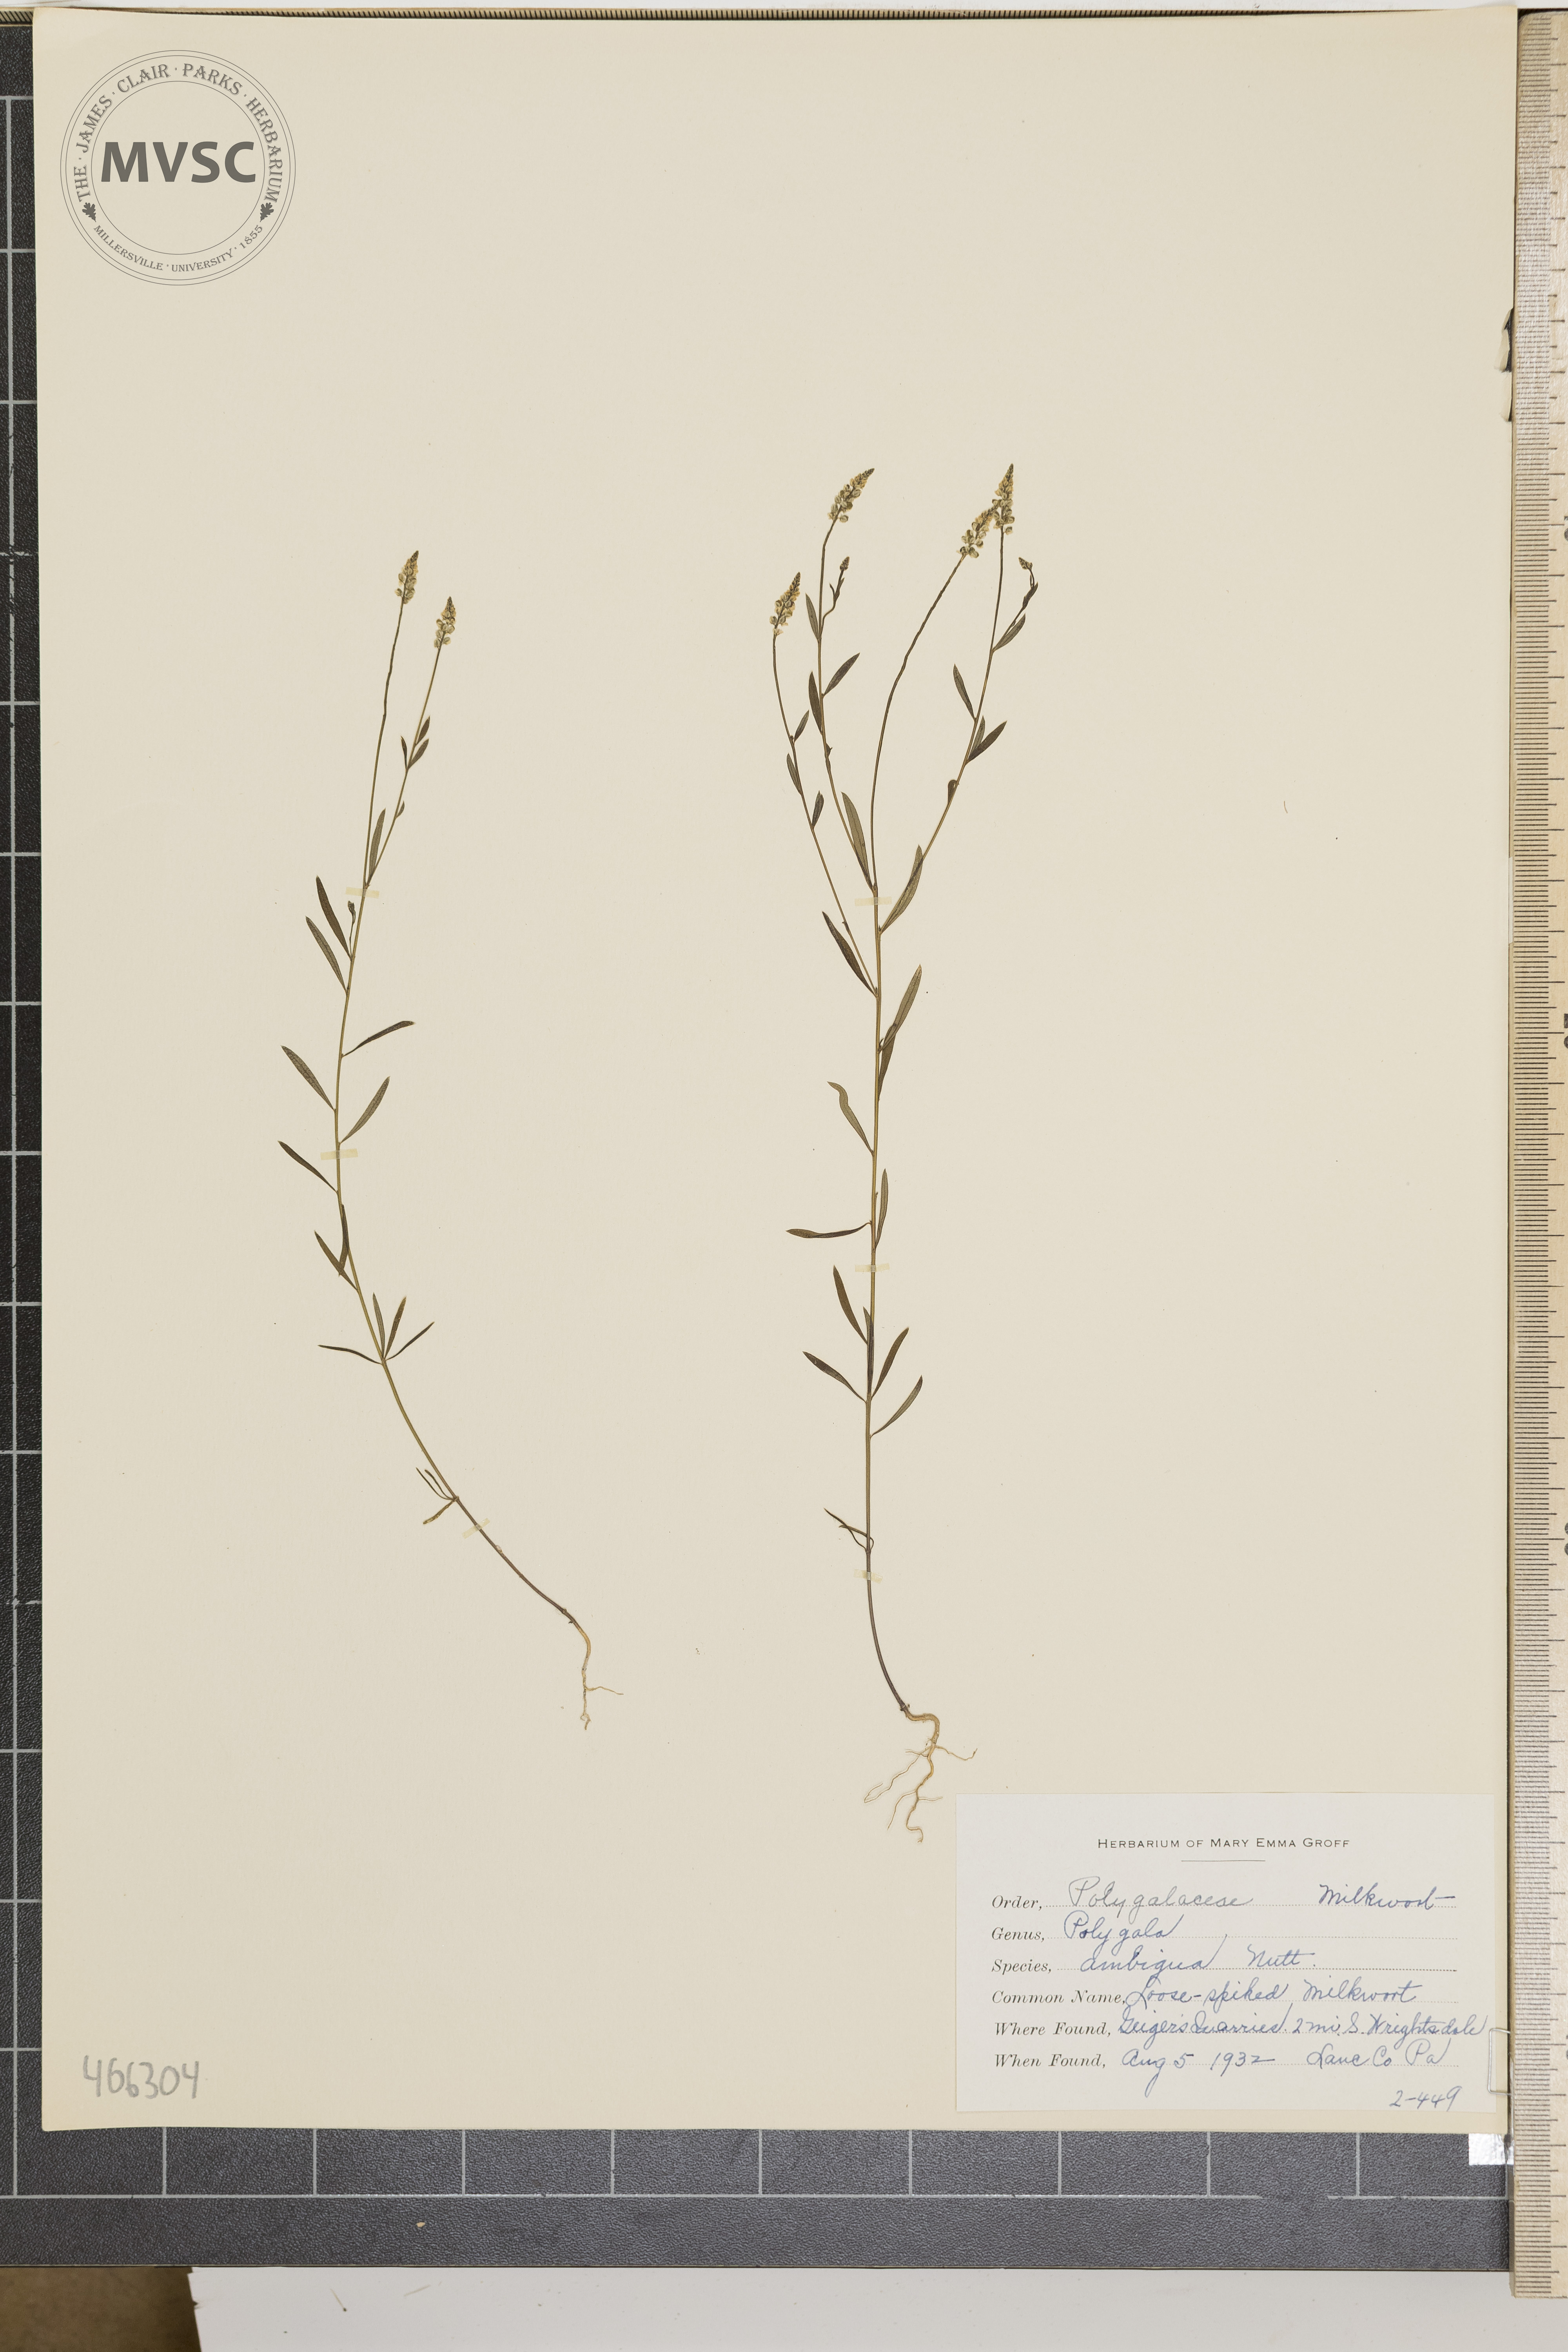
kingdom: Plantae
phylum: Tracheophyta
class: Magnoliopsida
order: Fabales
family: Polygalaceae
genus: Polygala
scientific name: Polygala ambigua
